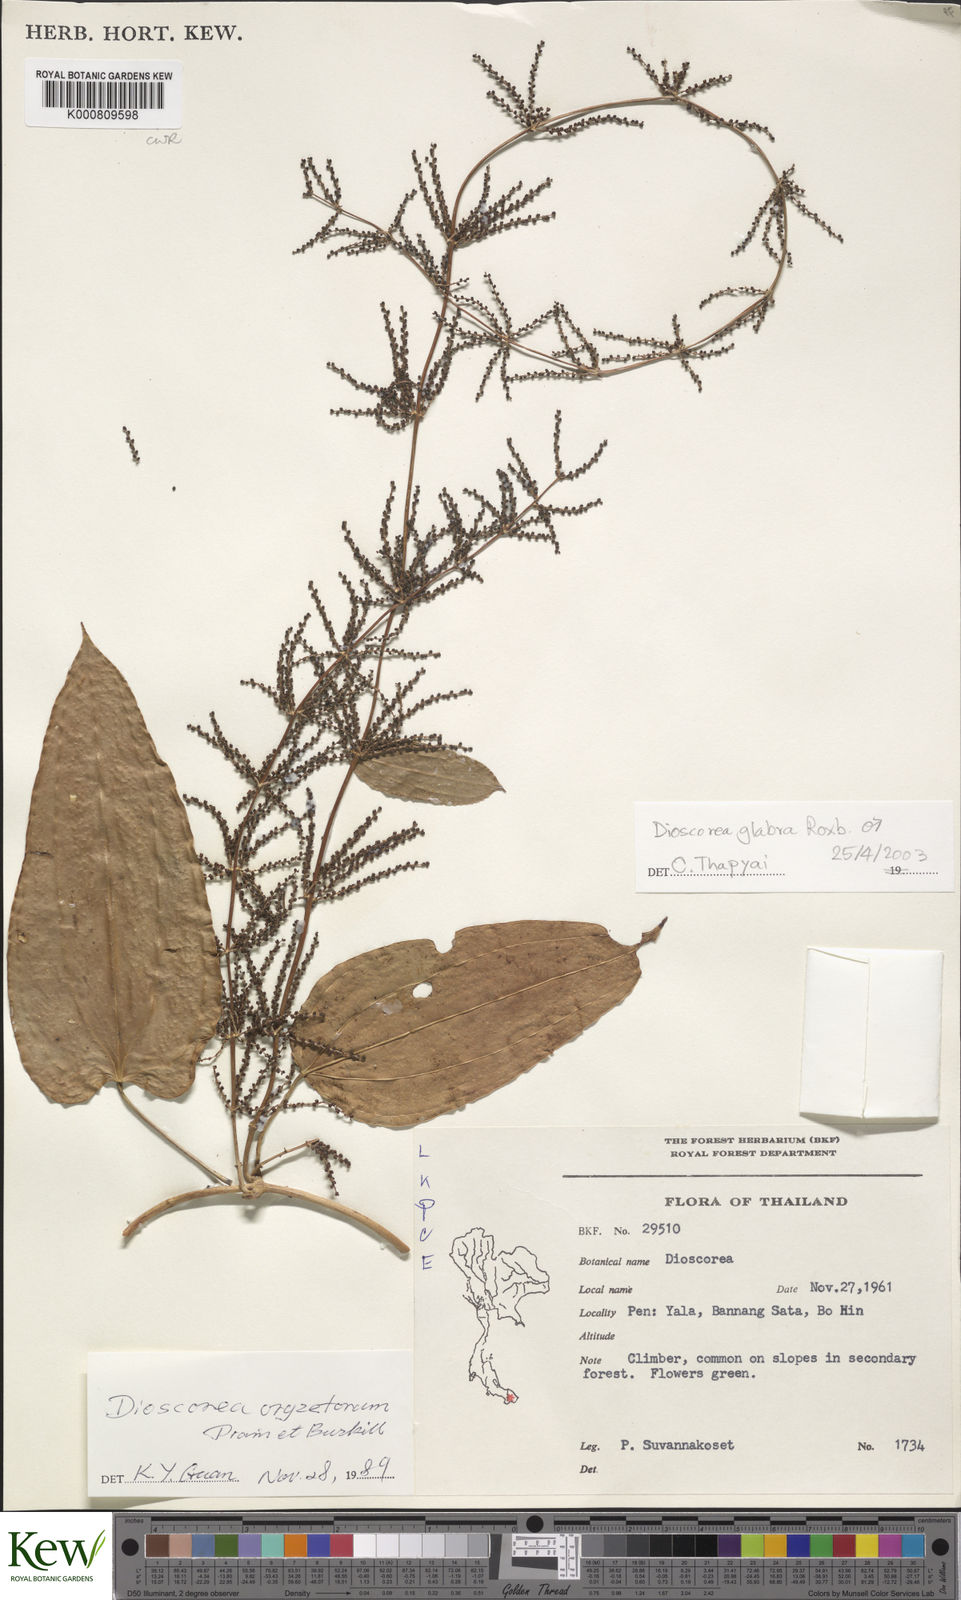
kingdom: Plantae
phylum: Tracheophyta
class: Liliopsida
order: Dioscoreales
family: Dioscoreaceae
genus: Dioscorea
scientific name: Dioscorea glabra
